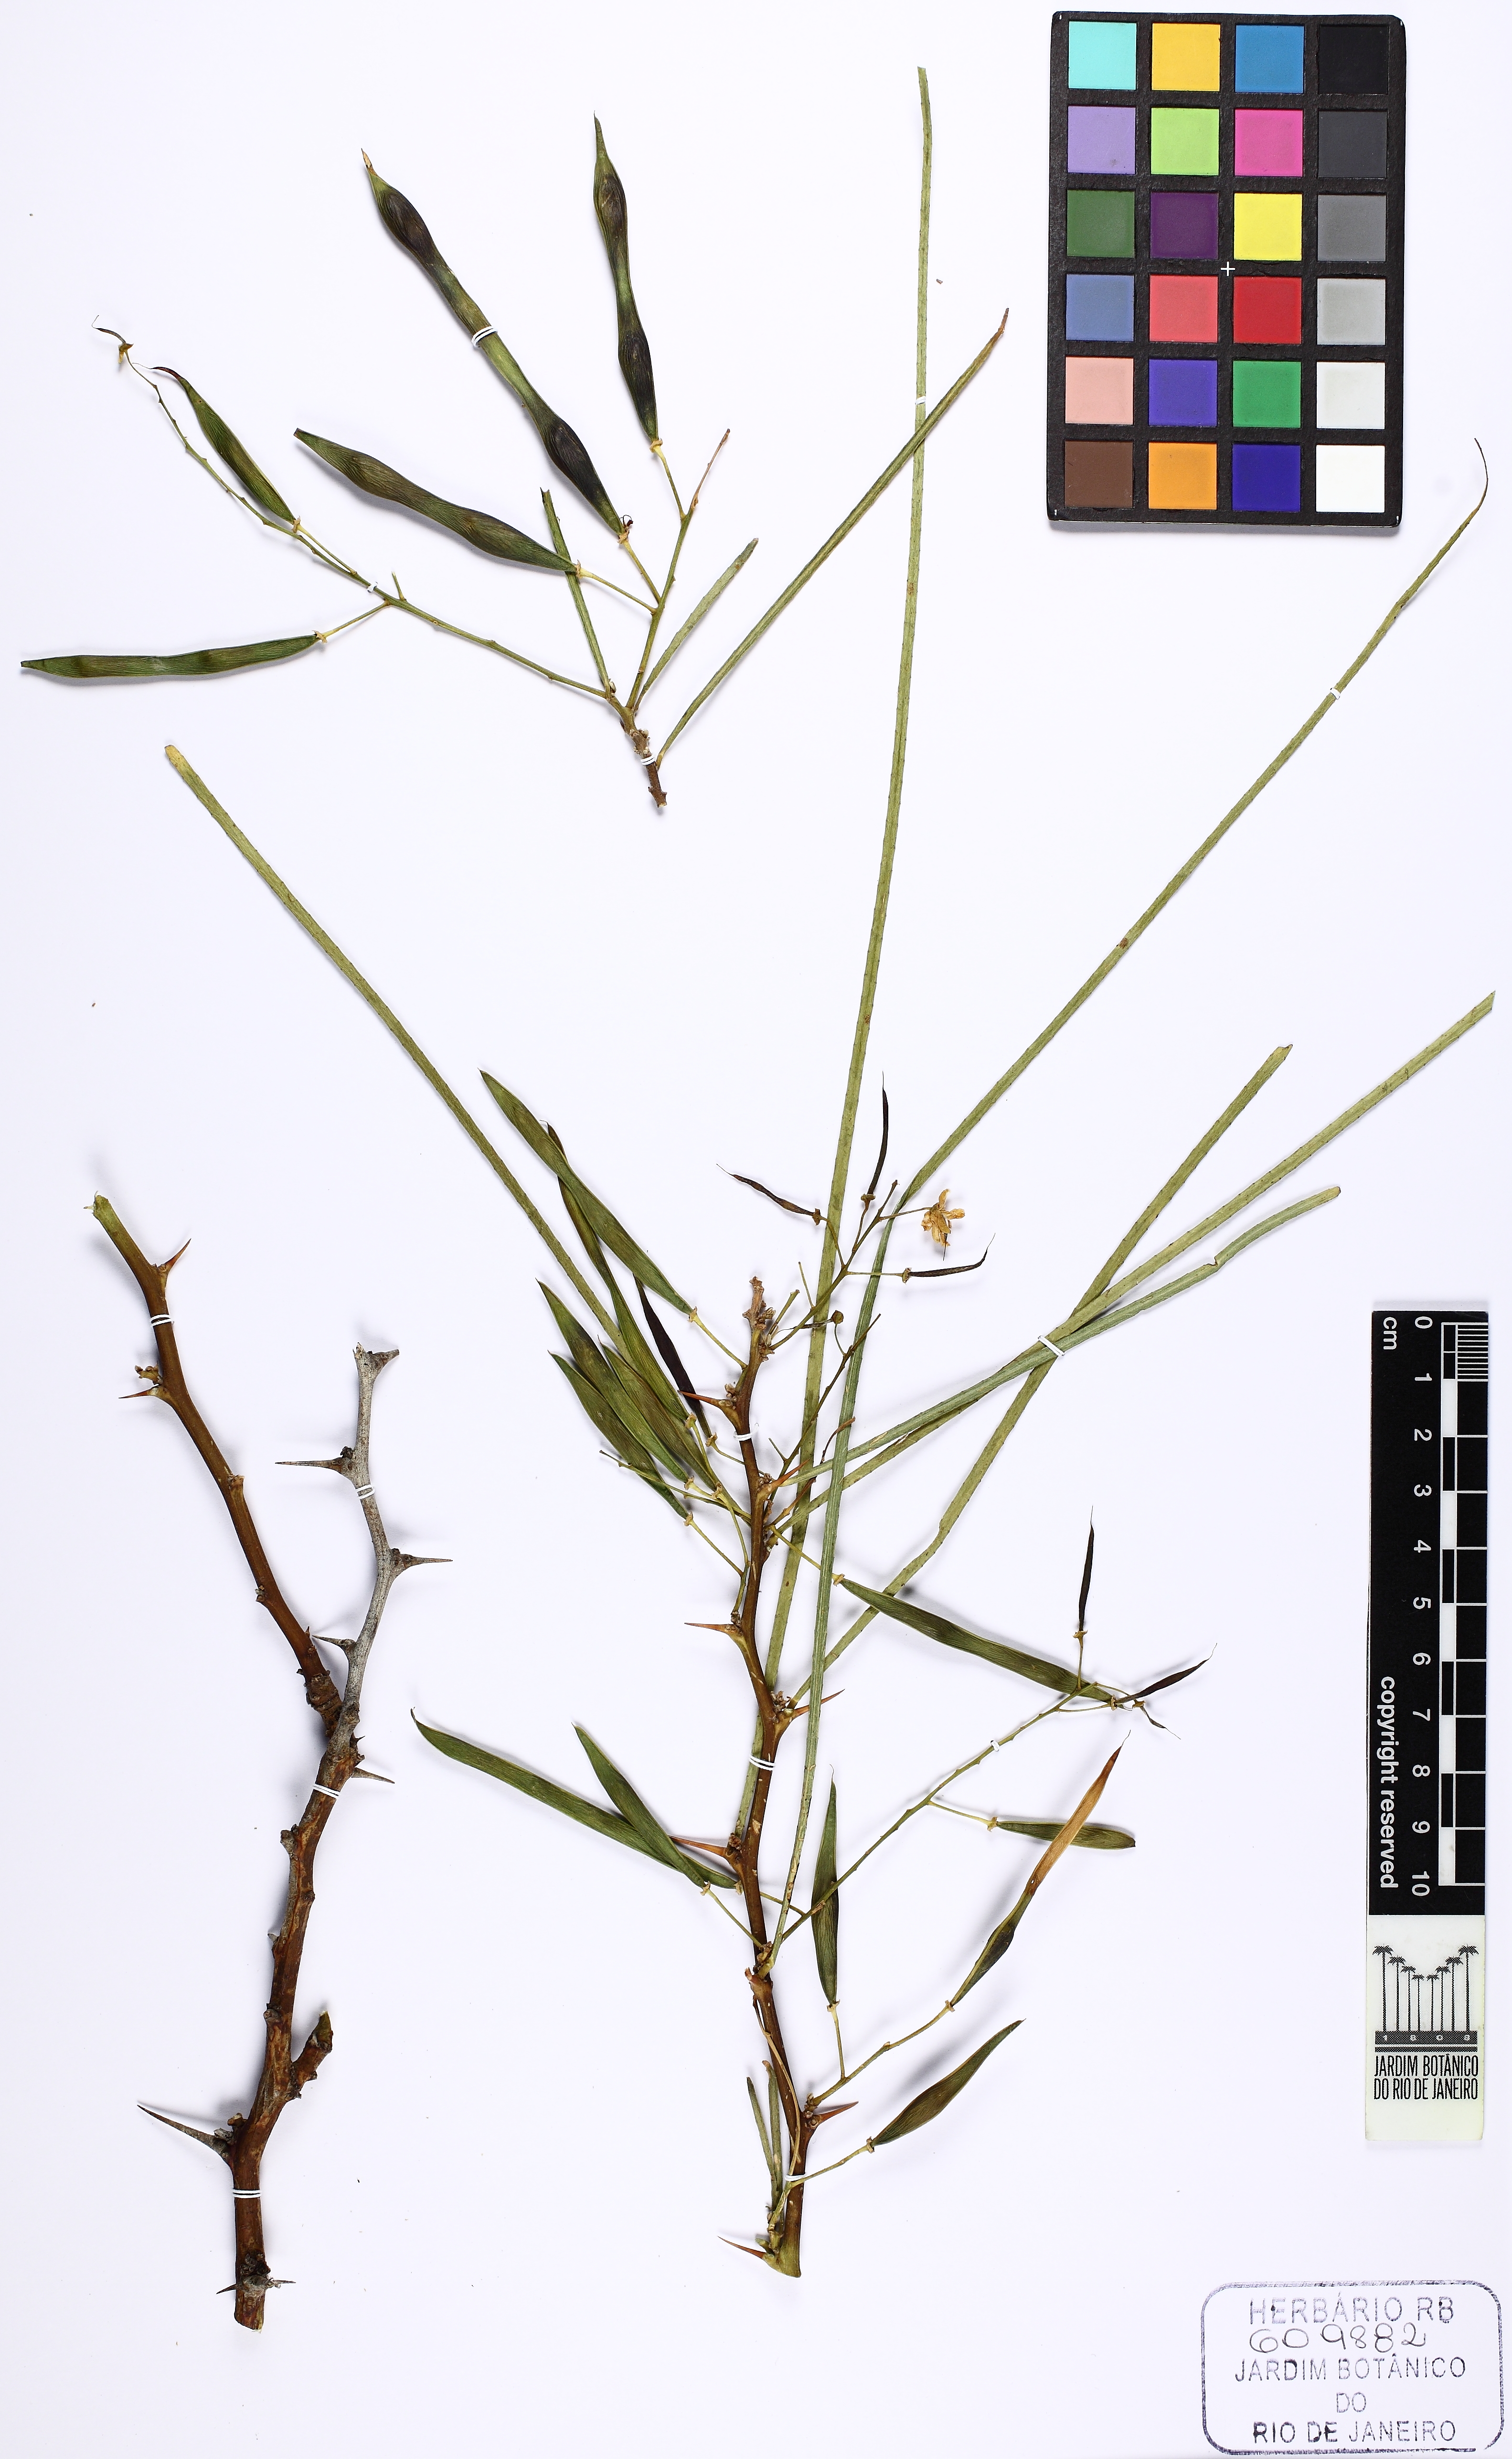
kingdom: Plantae
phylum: Tracheophyta
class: Magnoliopsida
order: Fabales
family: Fabaceae
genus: Parkinsonia
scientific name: Parkinsonia aculeata
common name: Jerusalem thorn
